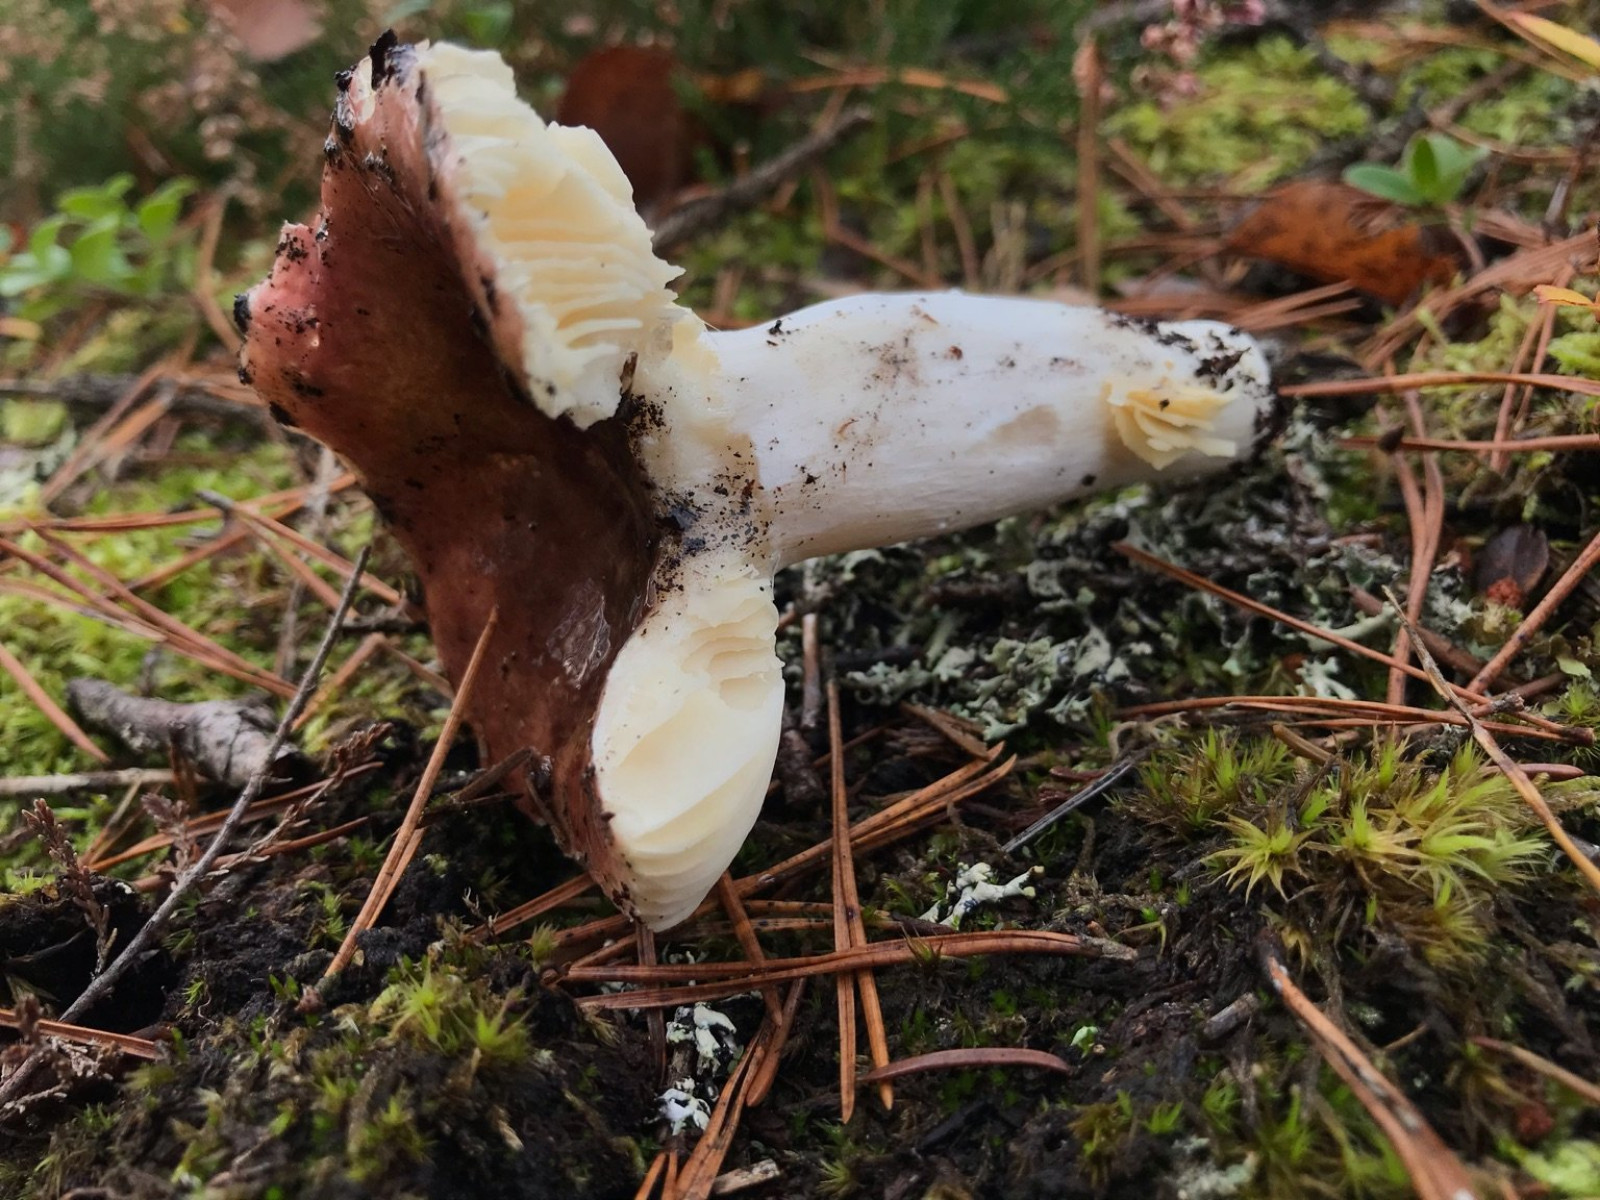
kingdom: Fungi
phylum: Basidiomycota
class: Agaricomycetes
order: Russulales
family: Russulaceae
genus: Russula
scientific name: Russula
